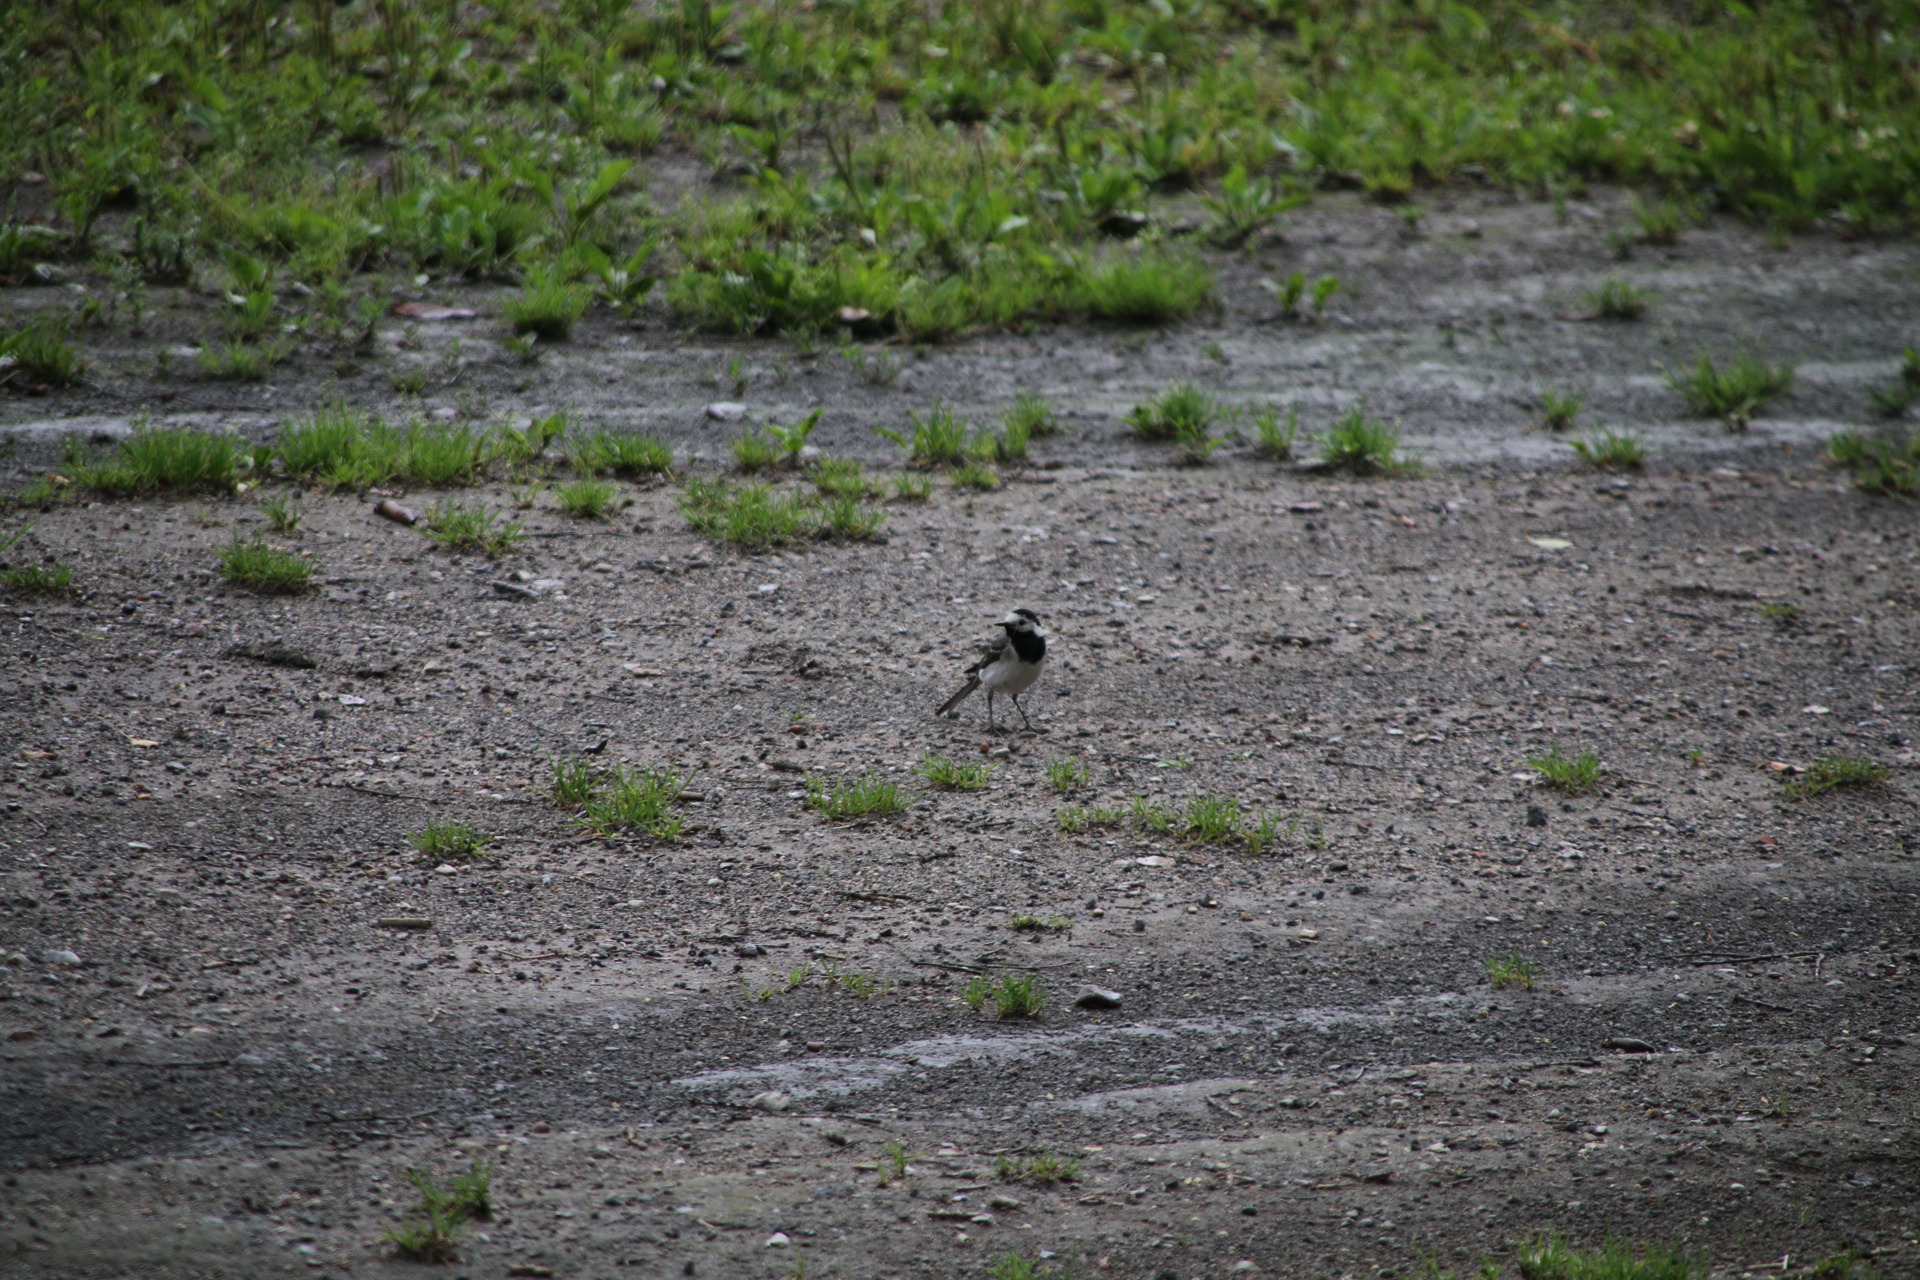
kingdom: Animalia
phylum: Chordata
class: Aves
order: Passeriformes
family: Motacillidae
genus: Motacilla
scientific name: Motacilla alba
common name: Hvid vipstjert
